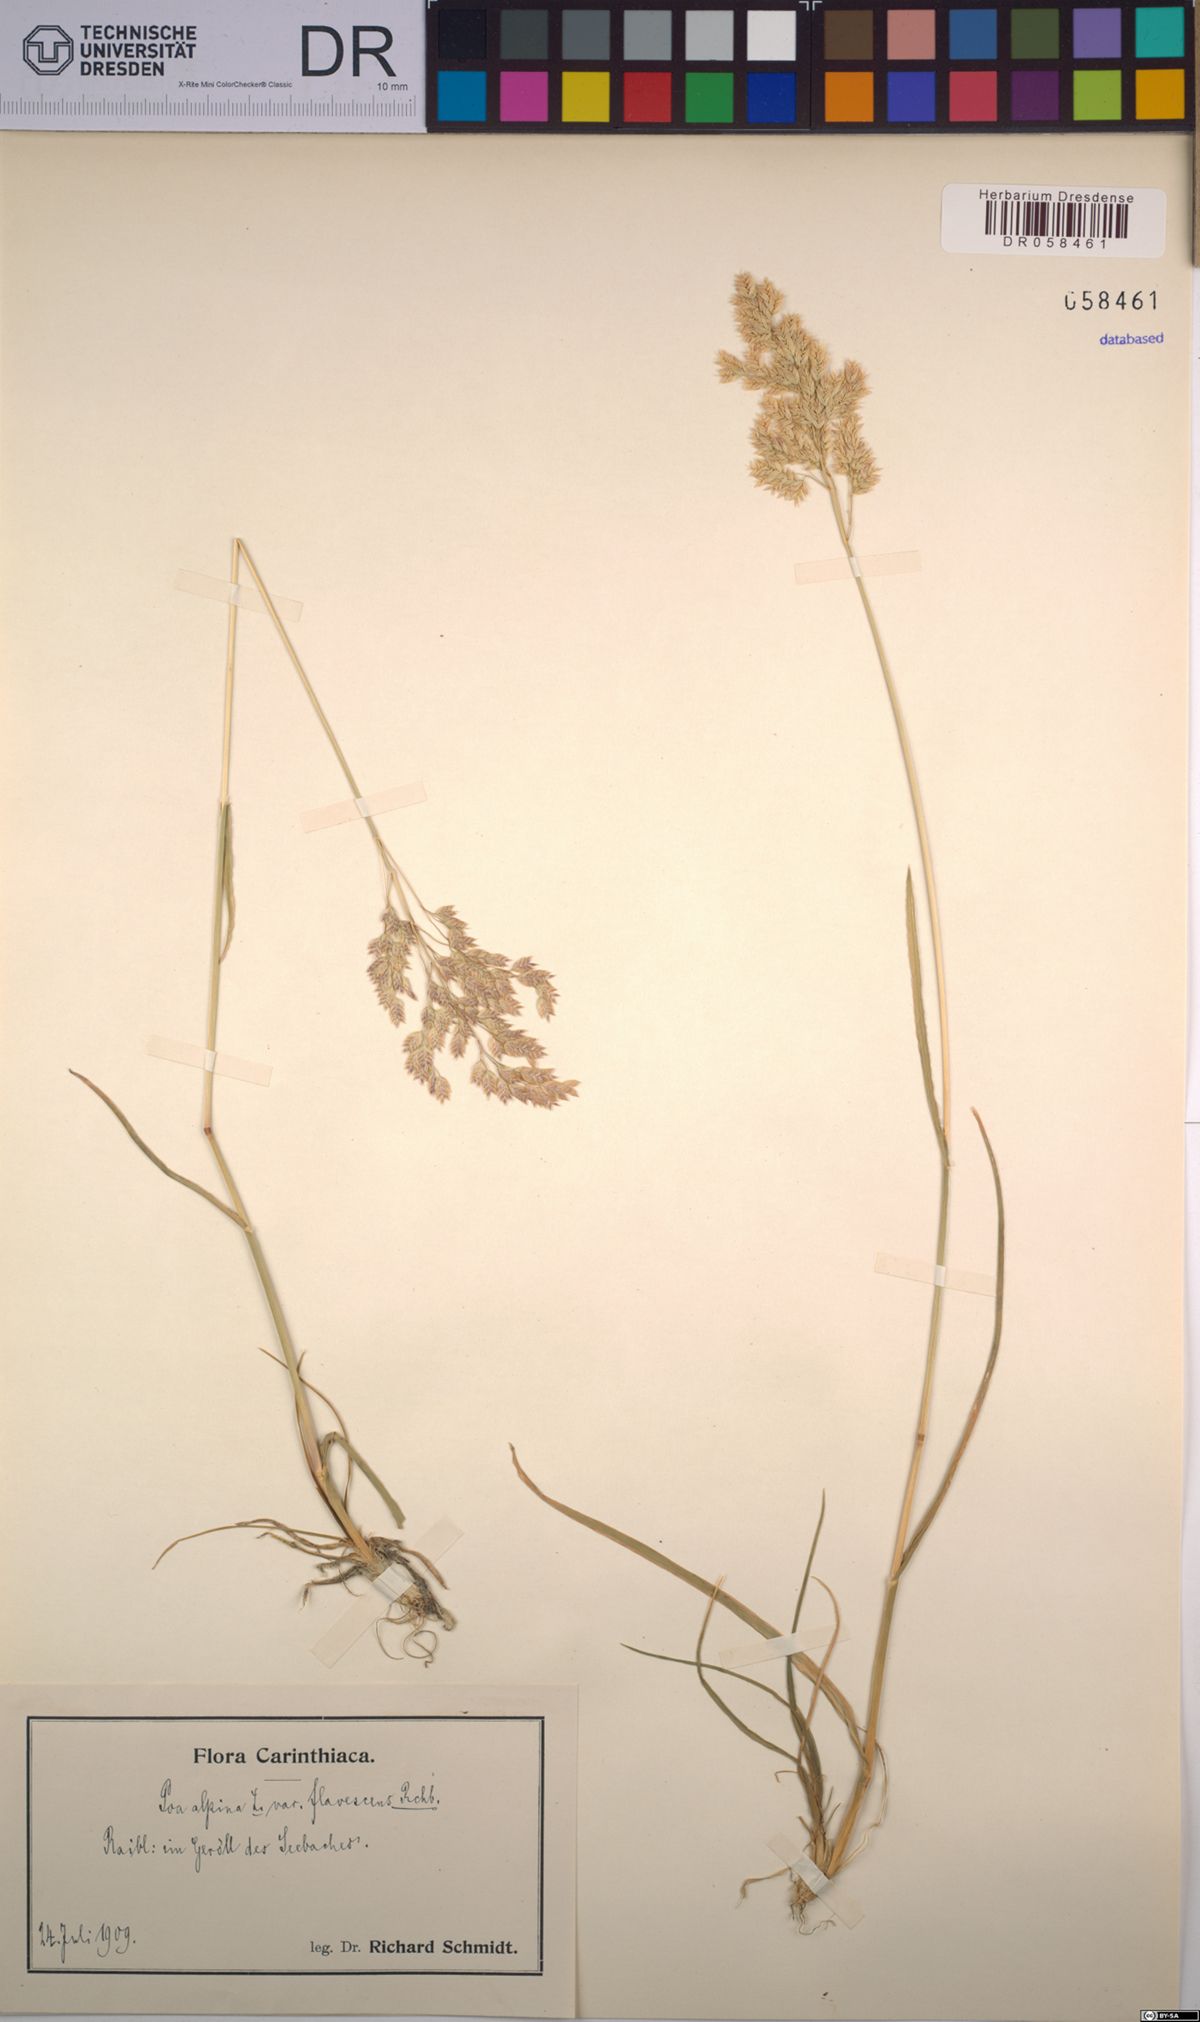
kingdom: Plantae
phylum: Tracheophyta
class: Liliopsida
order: Poales
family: Poaceae
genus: Poa
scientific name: Poa alpina
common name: Alpine bluegrass
